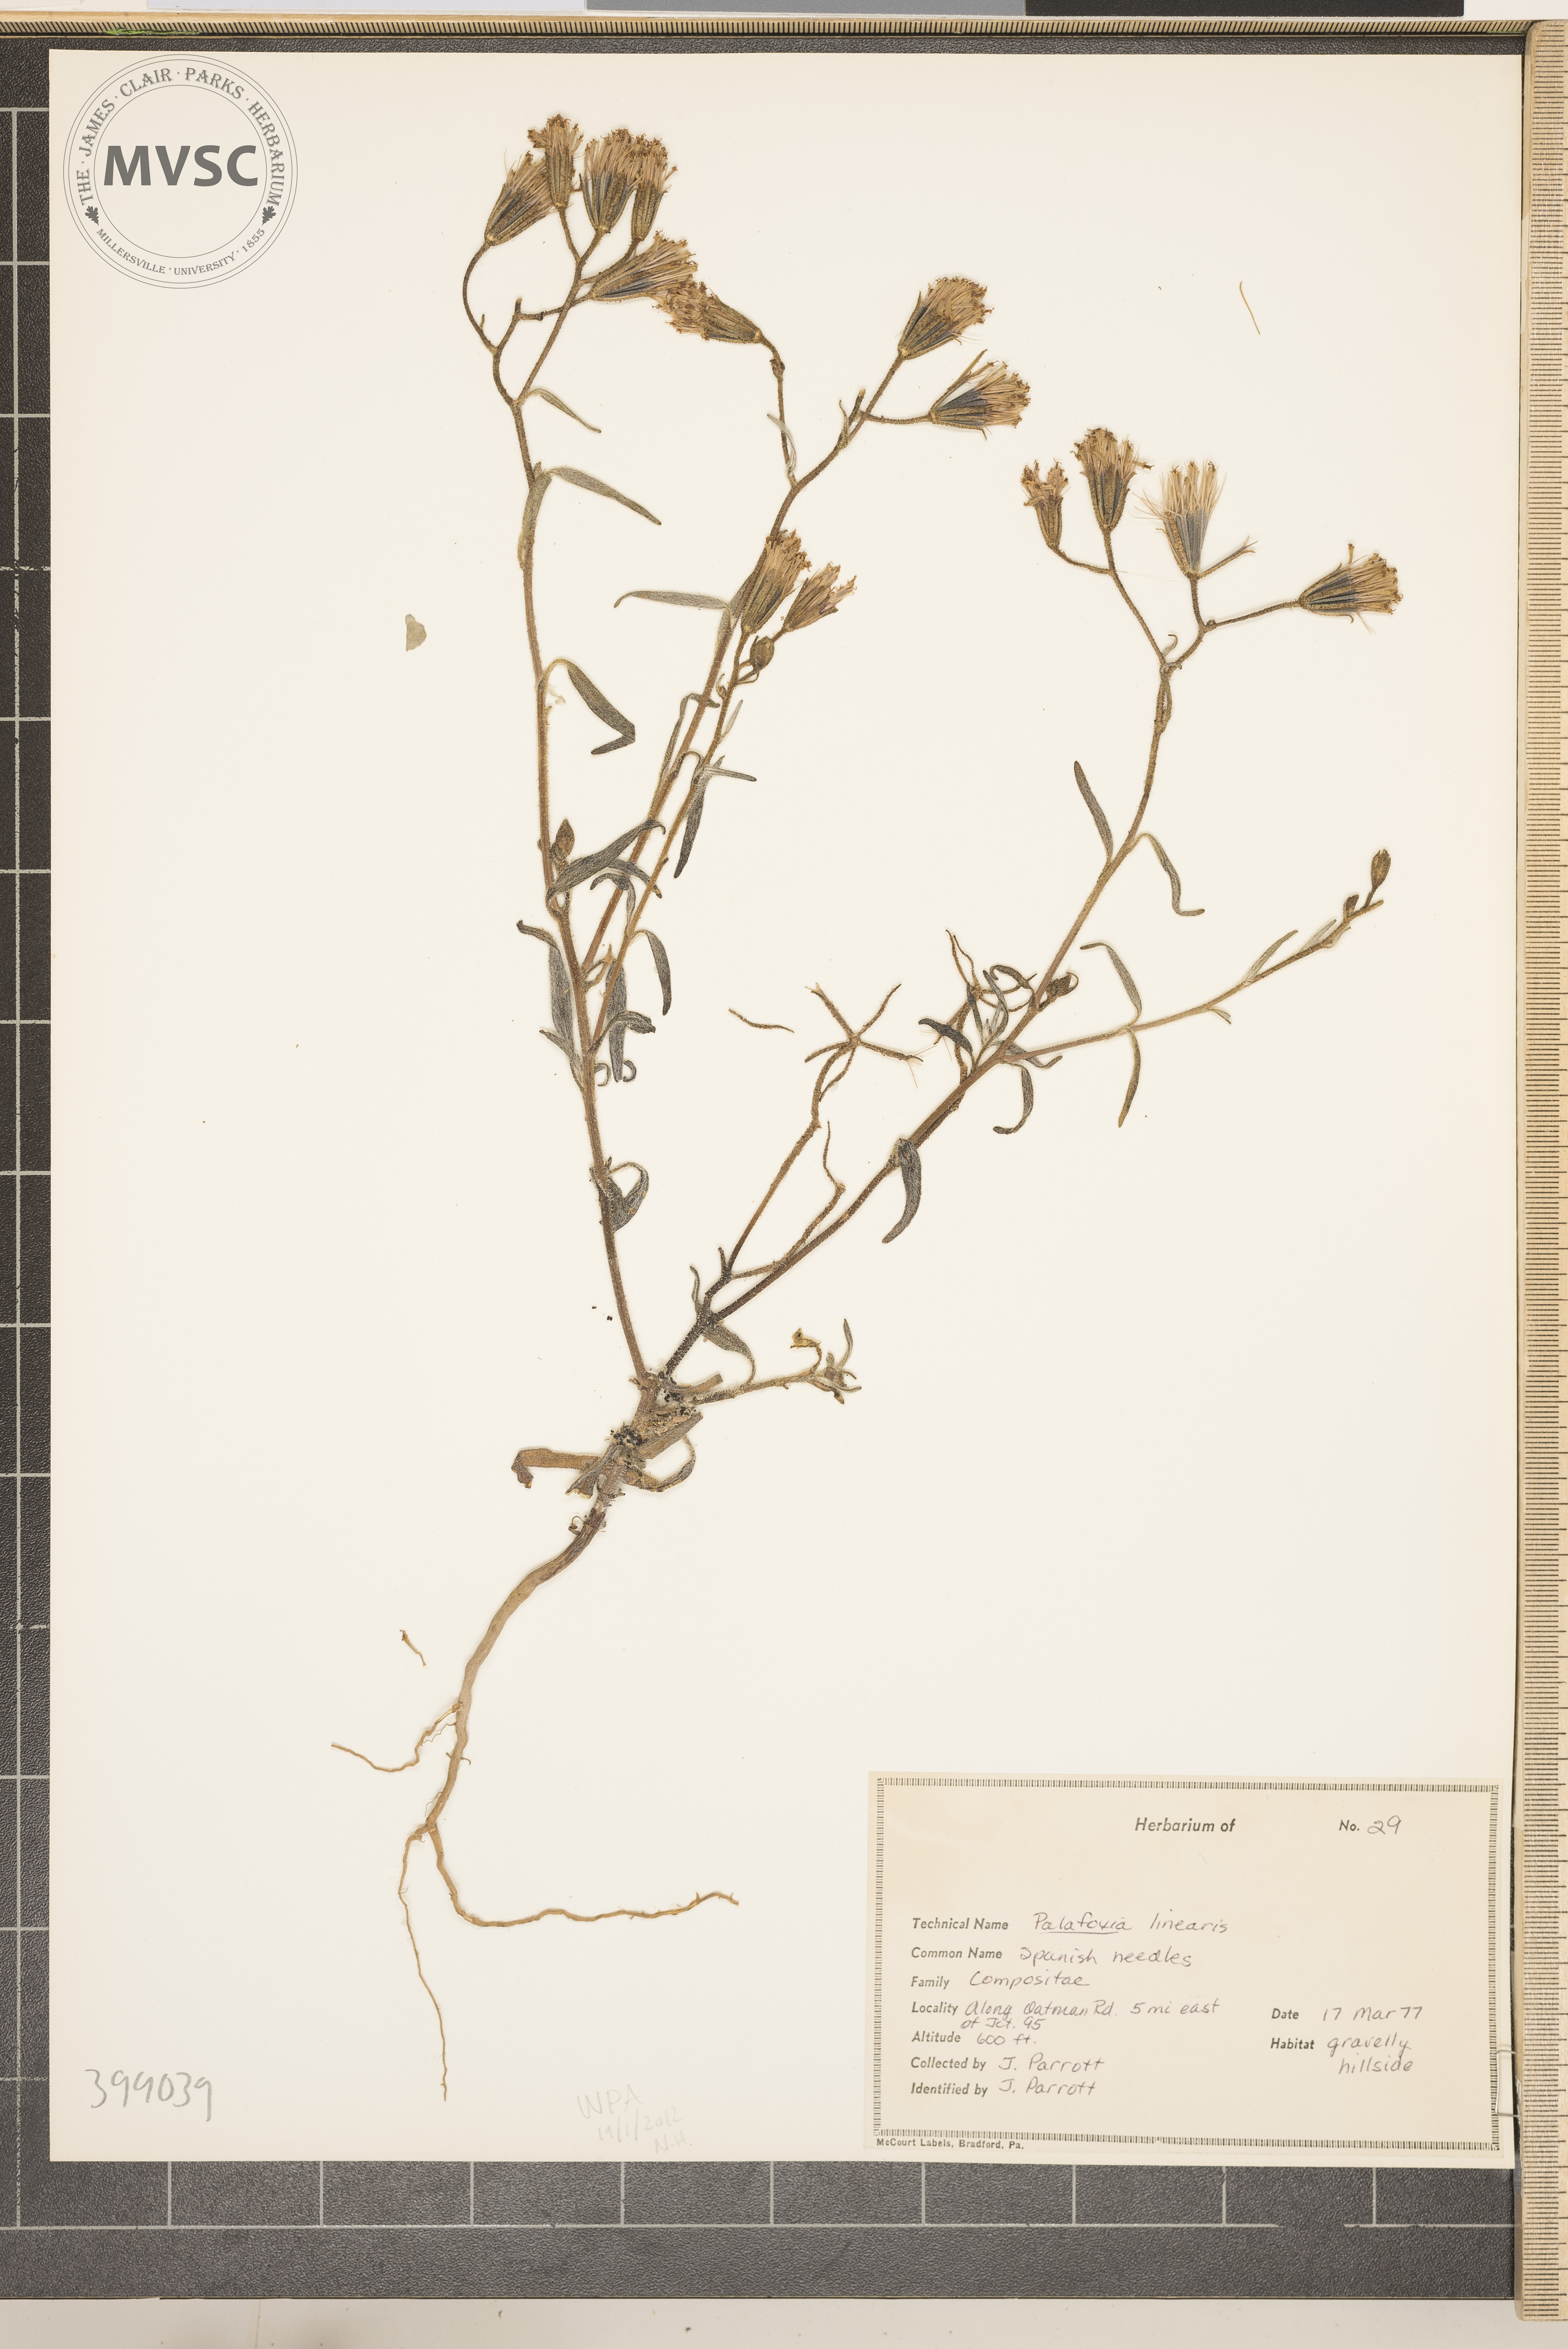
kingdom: Plantae
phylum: Tracheophyta
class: Magnoliopsida
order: Asterales
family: Asteraceae
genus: Palafoxia
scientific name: Palafoxia linearis
